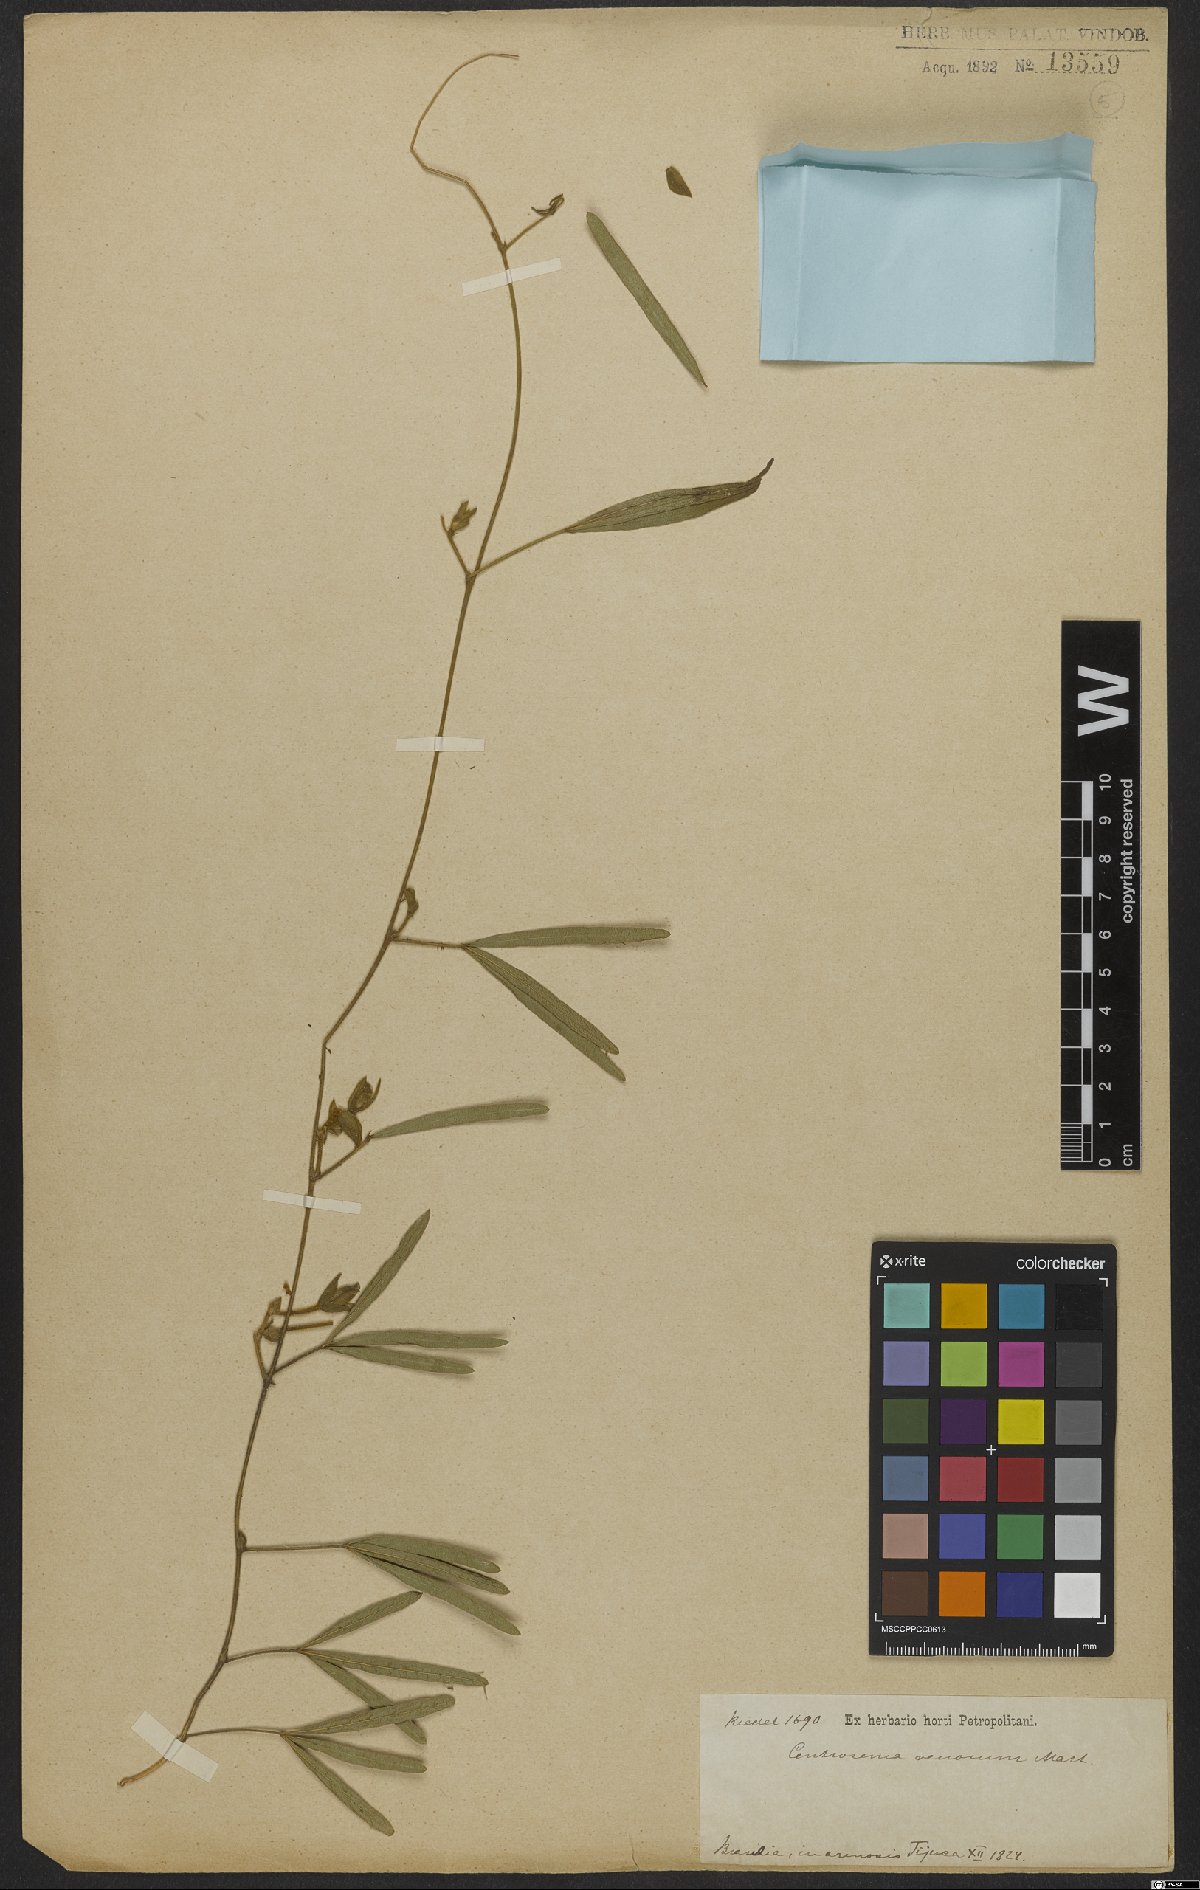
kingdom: Plantae
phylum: Tracheophyta
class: Magnoliopsida
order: Fabales
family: Fabaceae
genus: Centrosema
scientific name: Centrosema venosum
